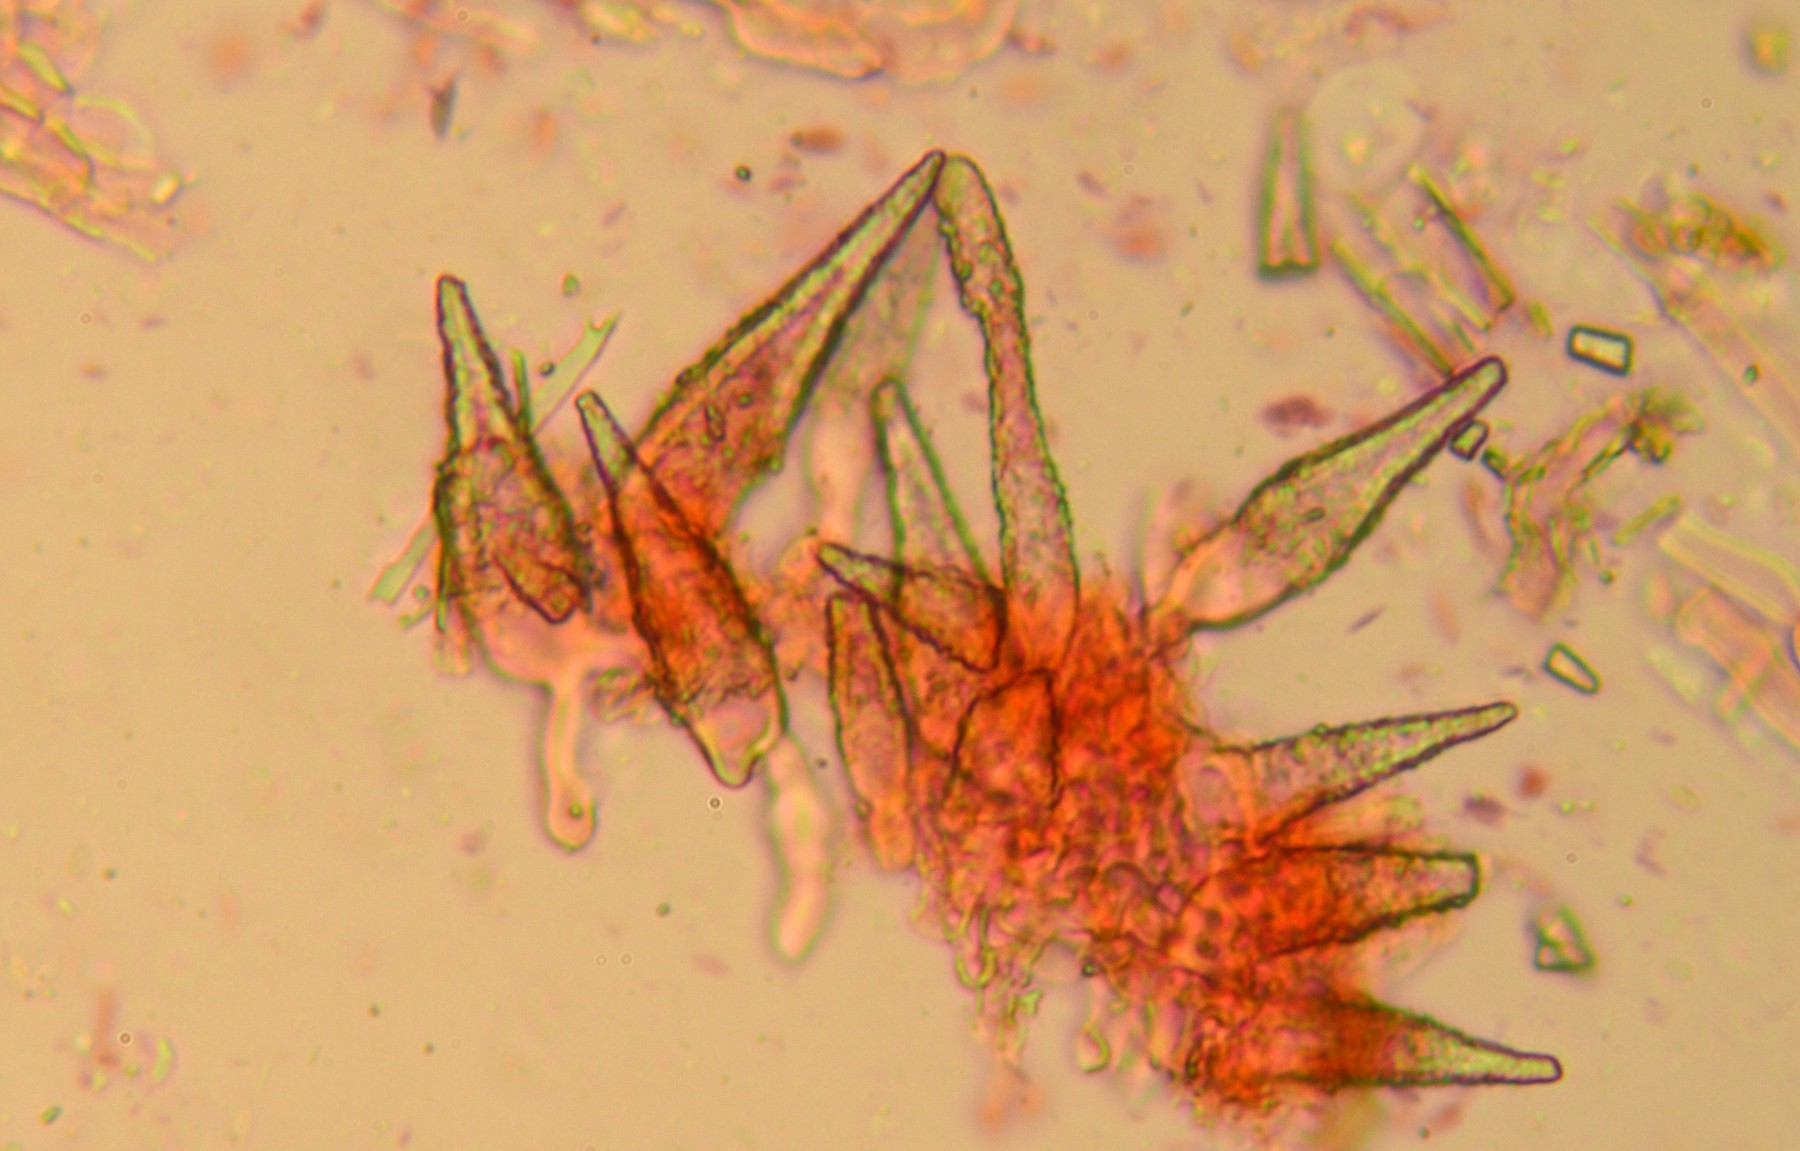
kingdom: Fungi
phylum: Basidiomycota
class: Agaricomycetes
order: Polyporales
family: Meruliaceae
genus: Scopuloides
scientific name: Scopuloides rimosa
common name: dughinde
